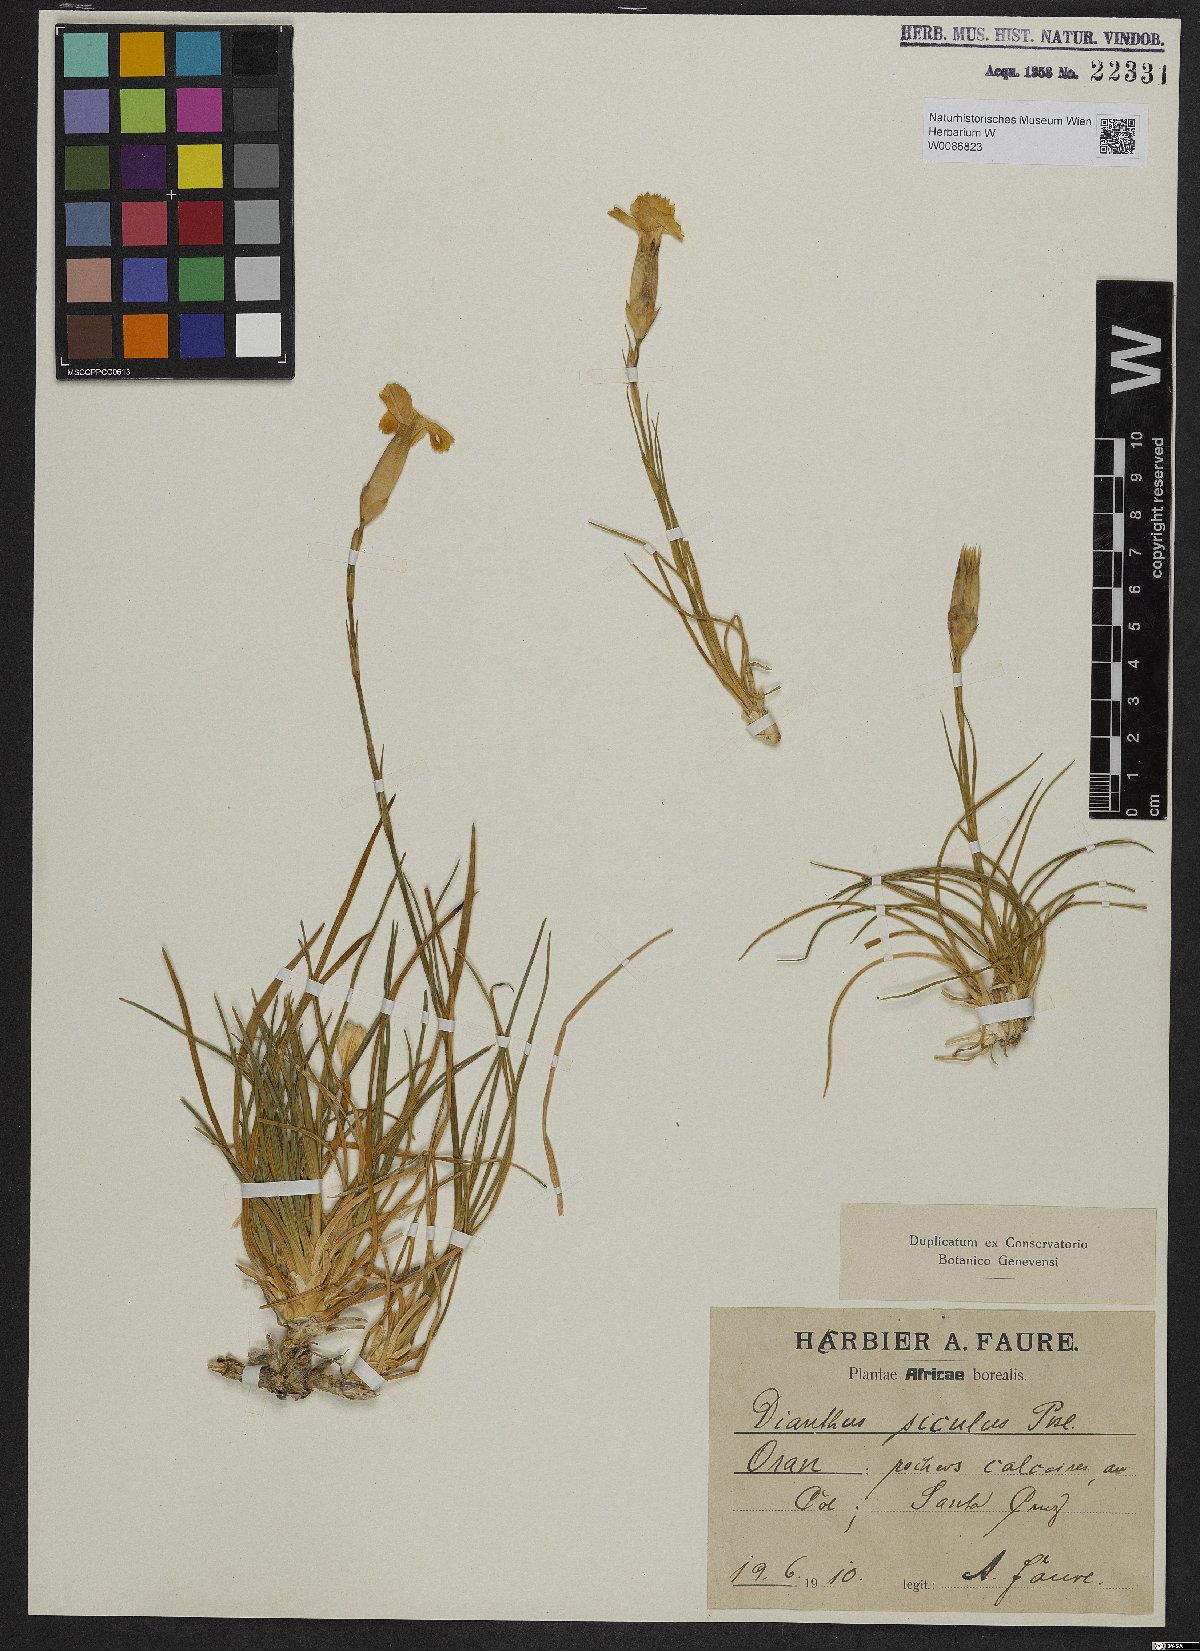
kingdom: Plantae
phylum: Tracheophyta
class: Magnoliopsida
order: Caryophyllales
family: Caryophyllaceae
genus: Dianthus
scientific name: Dianthus siculus
